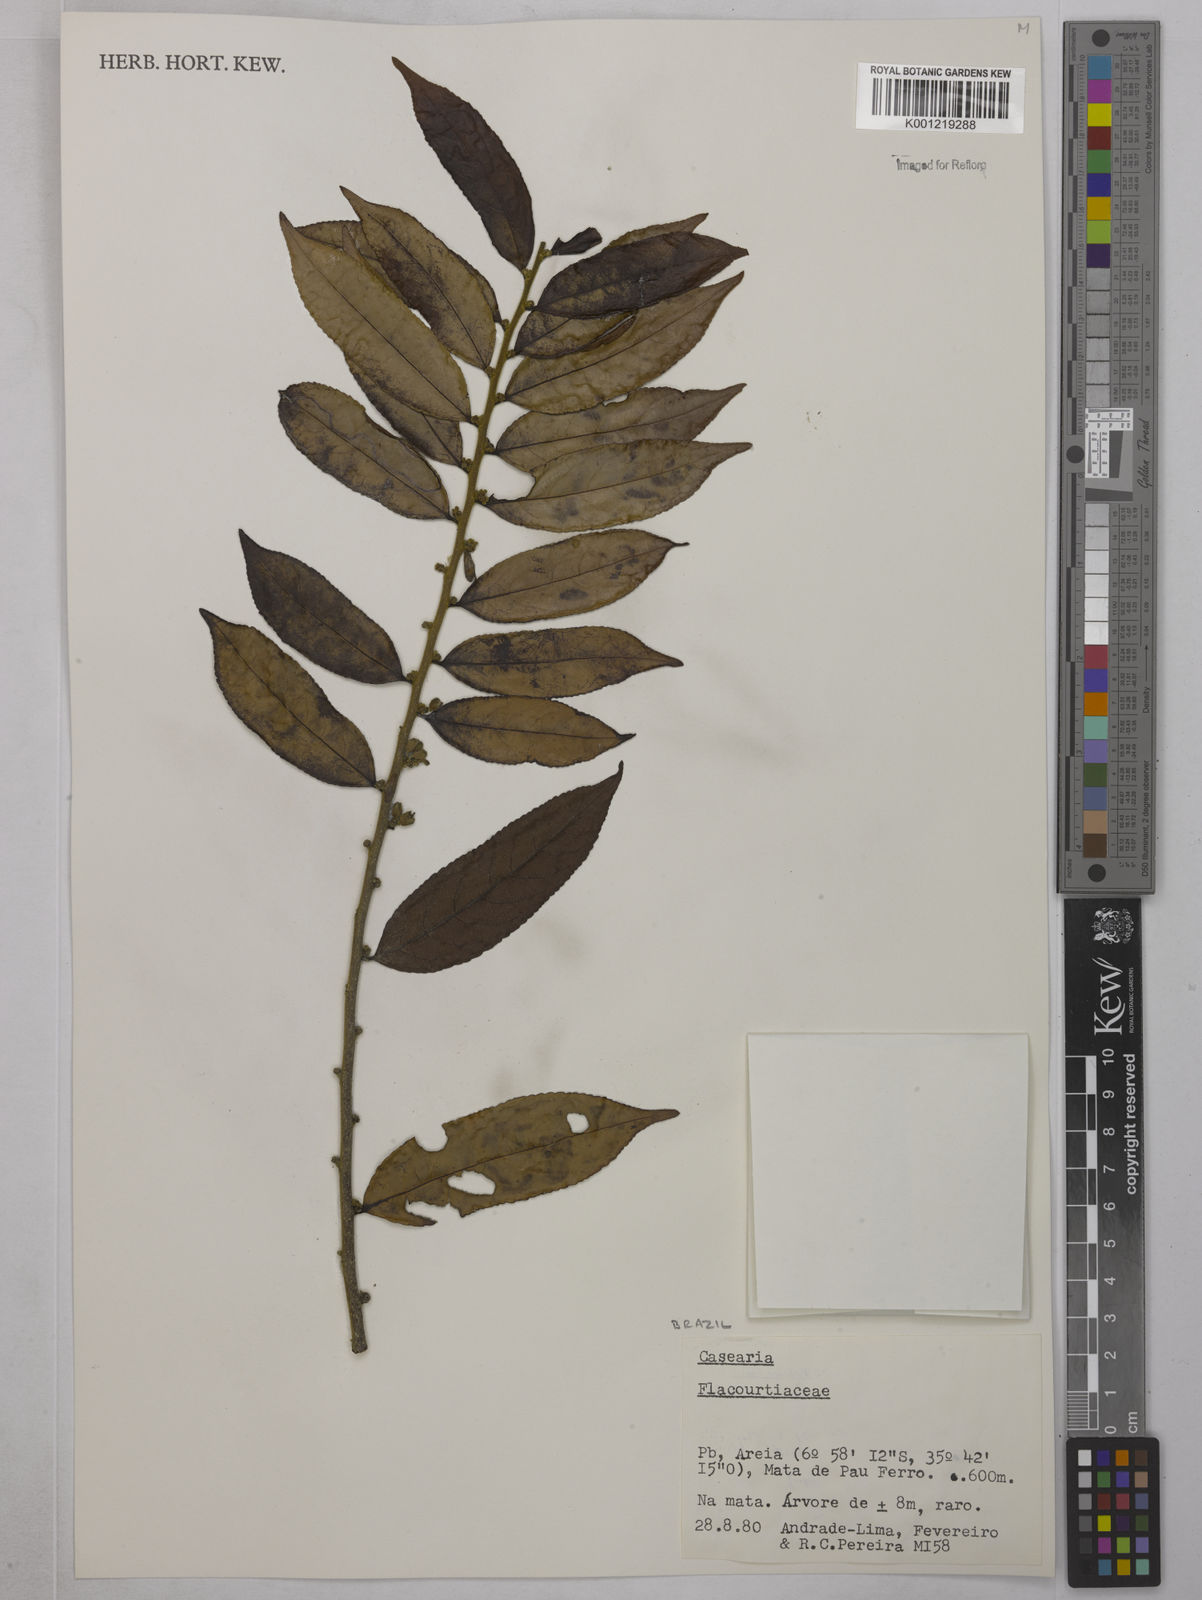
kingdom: Plantae
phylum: Tracheophyta
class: Magnoliopsida
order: Malpighiales
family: Salicaceae
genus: Casearia
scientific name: Casearia
